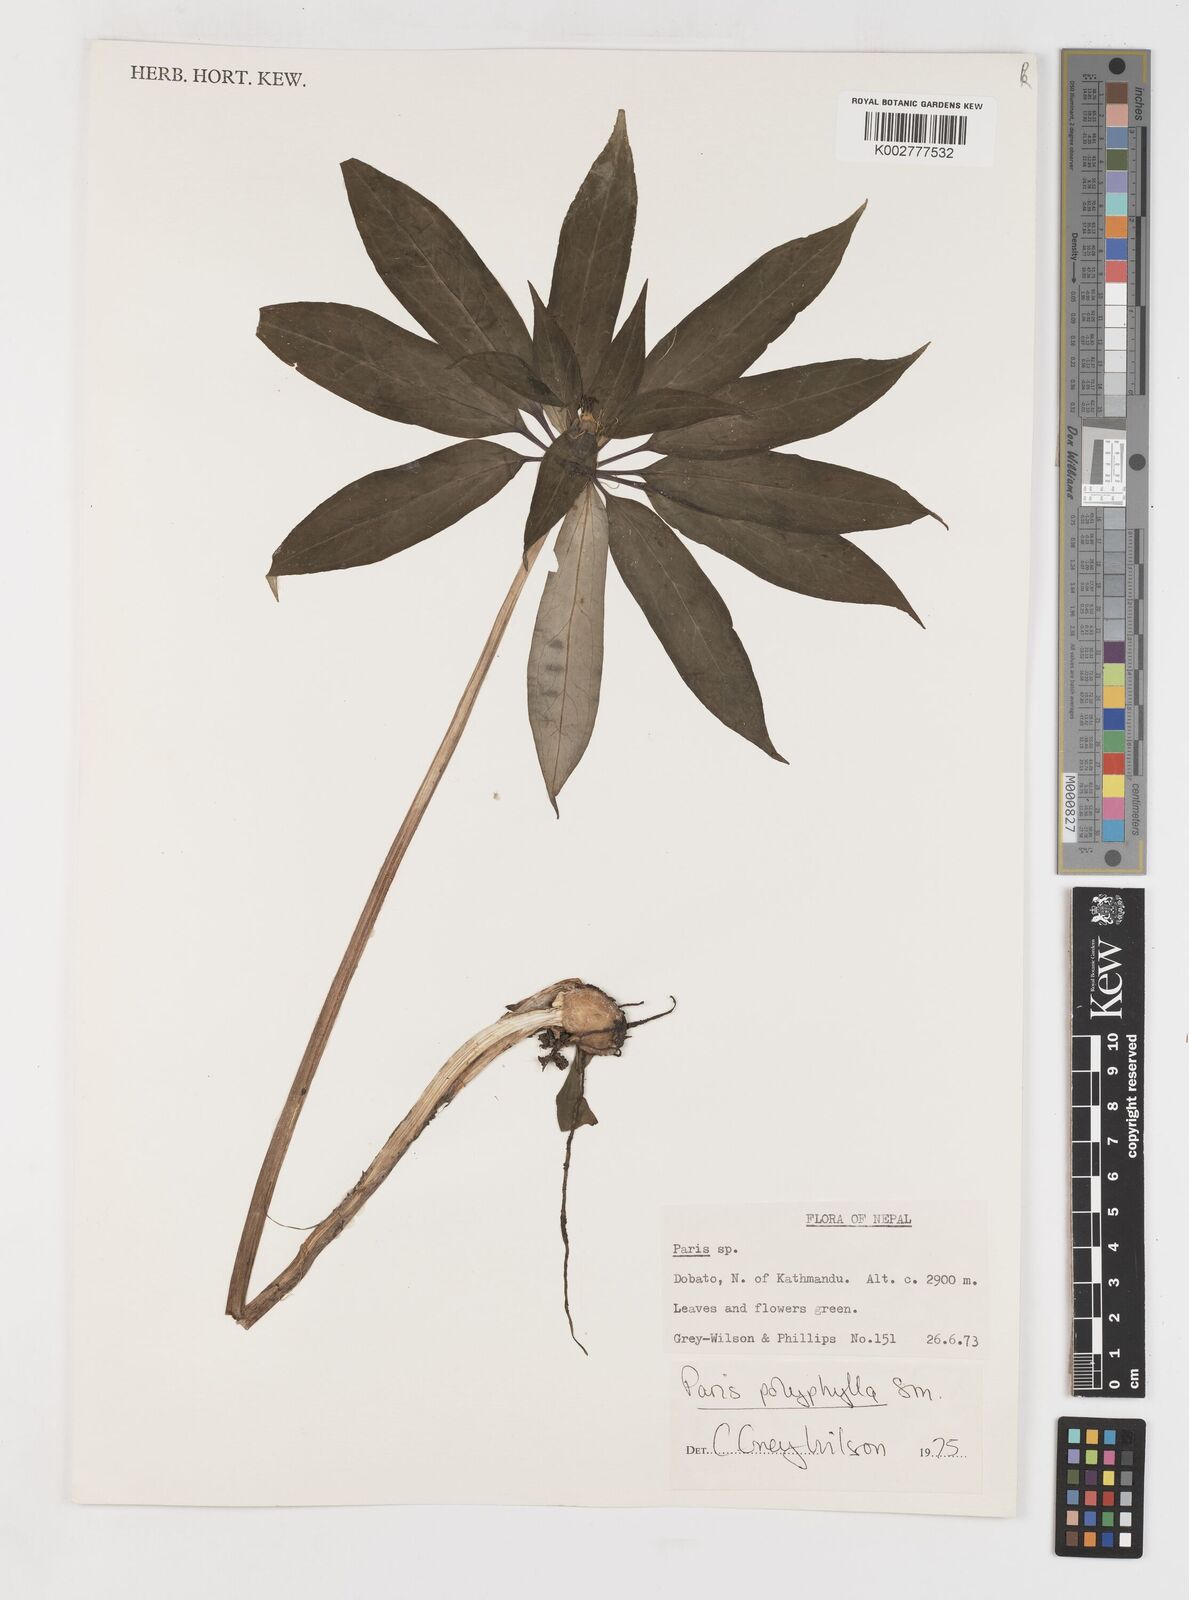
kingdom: Plantae
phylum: Tracheophyta
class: Liliopsida
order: Liliales
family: Melanthiaceae
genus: Paris
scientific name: Paris polyphylla
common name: Love apple
